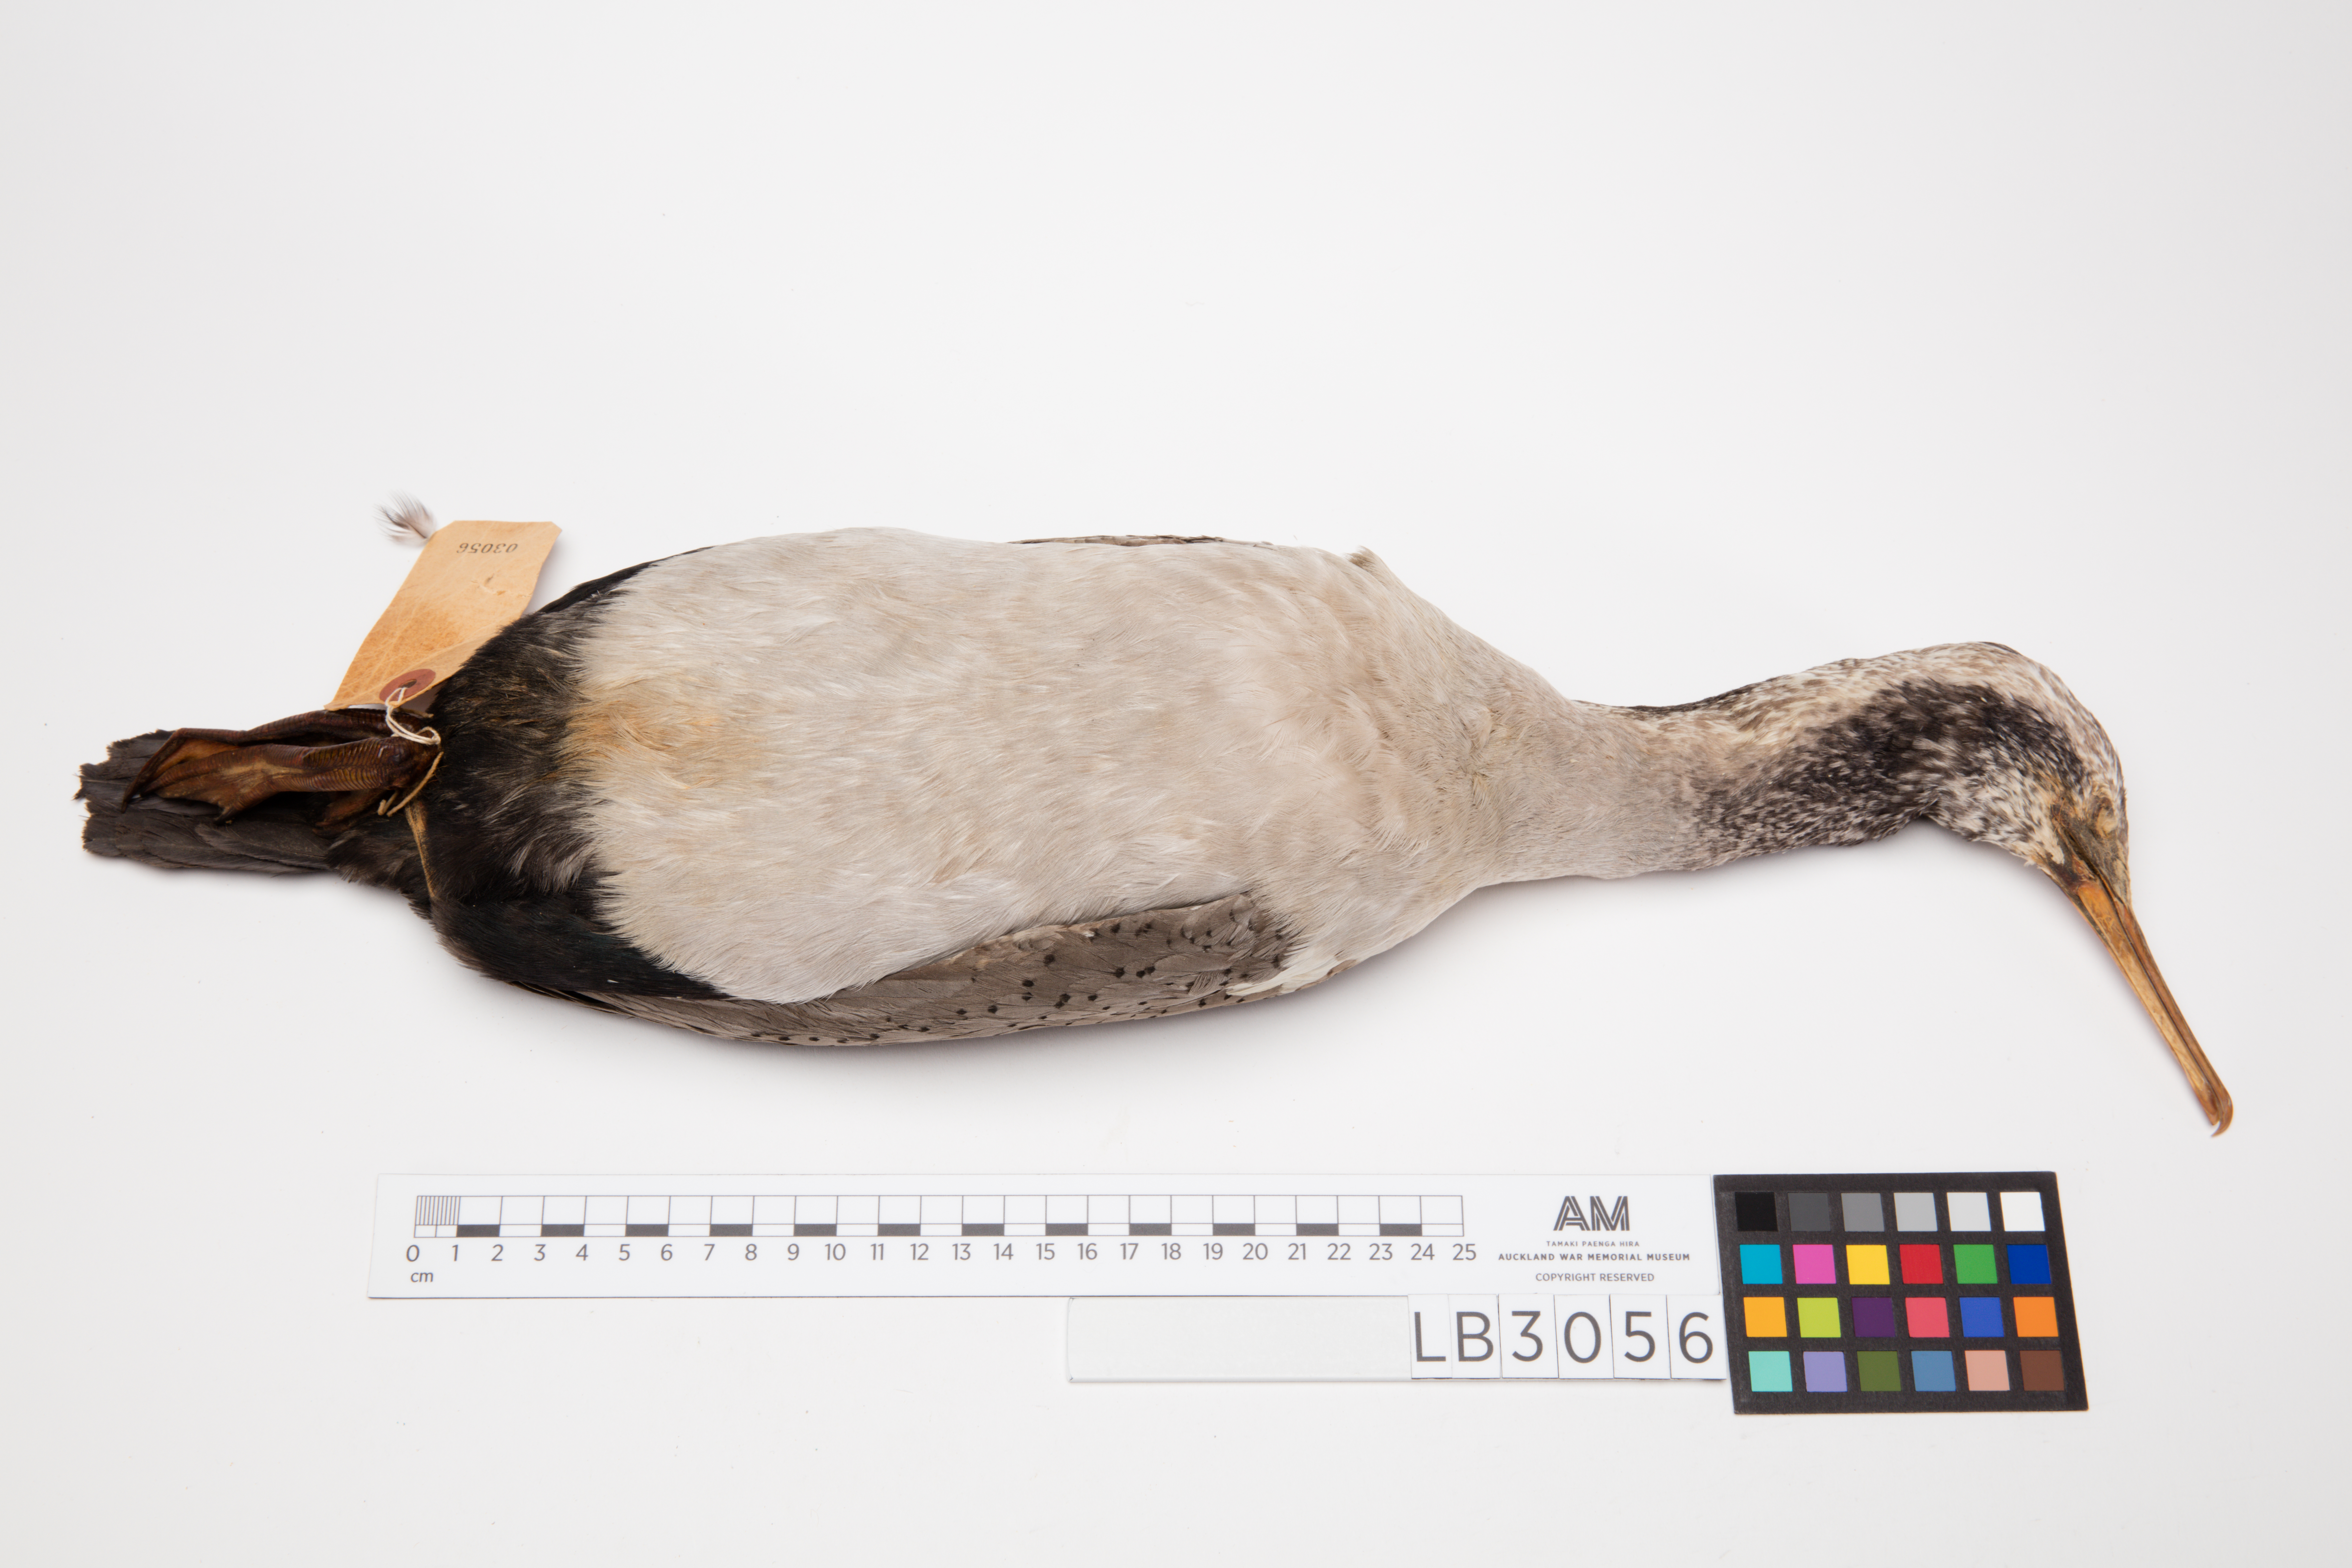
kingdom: Animalia
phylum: Chordata
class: Aves
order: Suliformes
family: Phalacrocoracidae
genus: Phalacrocorax
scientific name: Phalacrocorax punctatus
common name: Spotted shag
